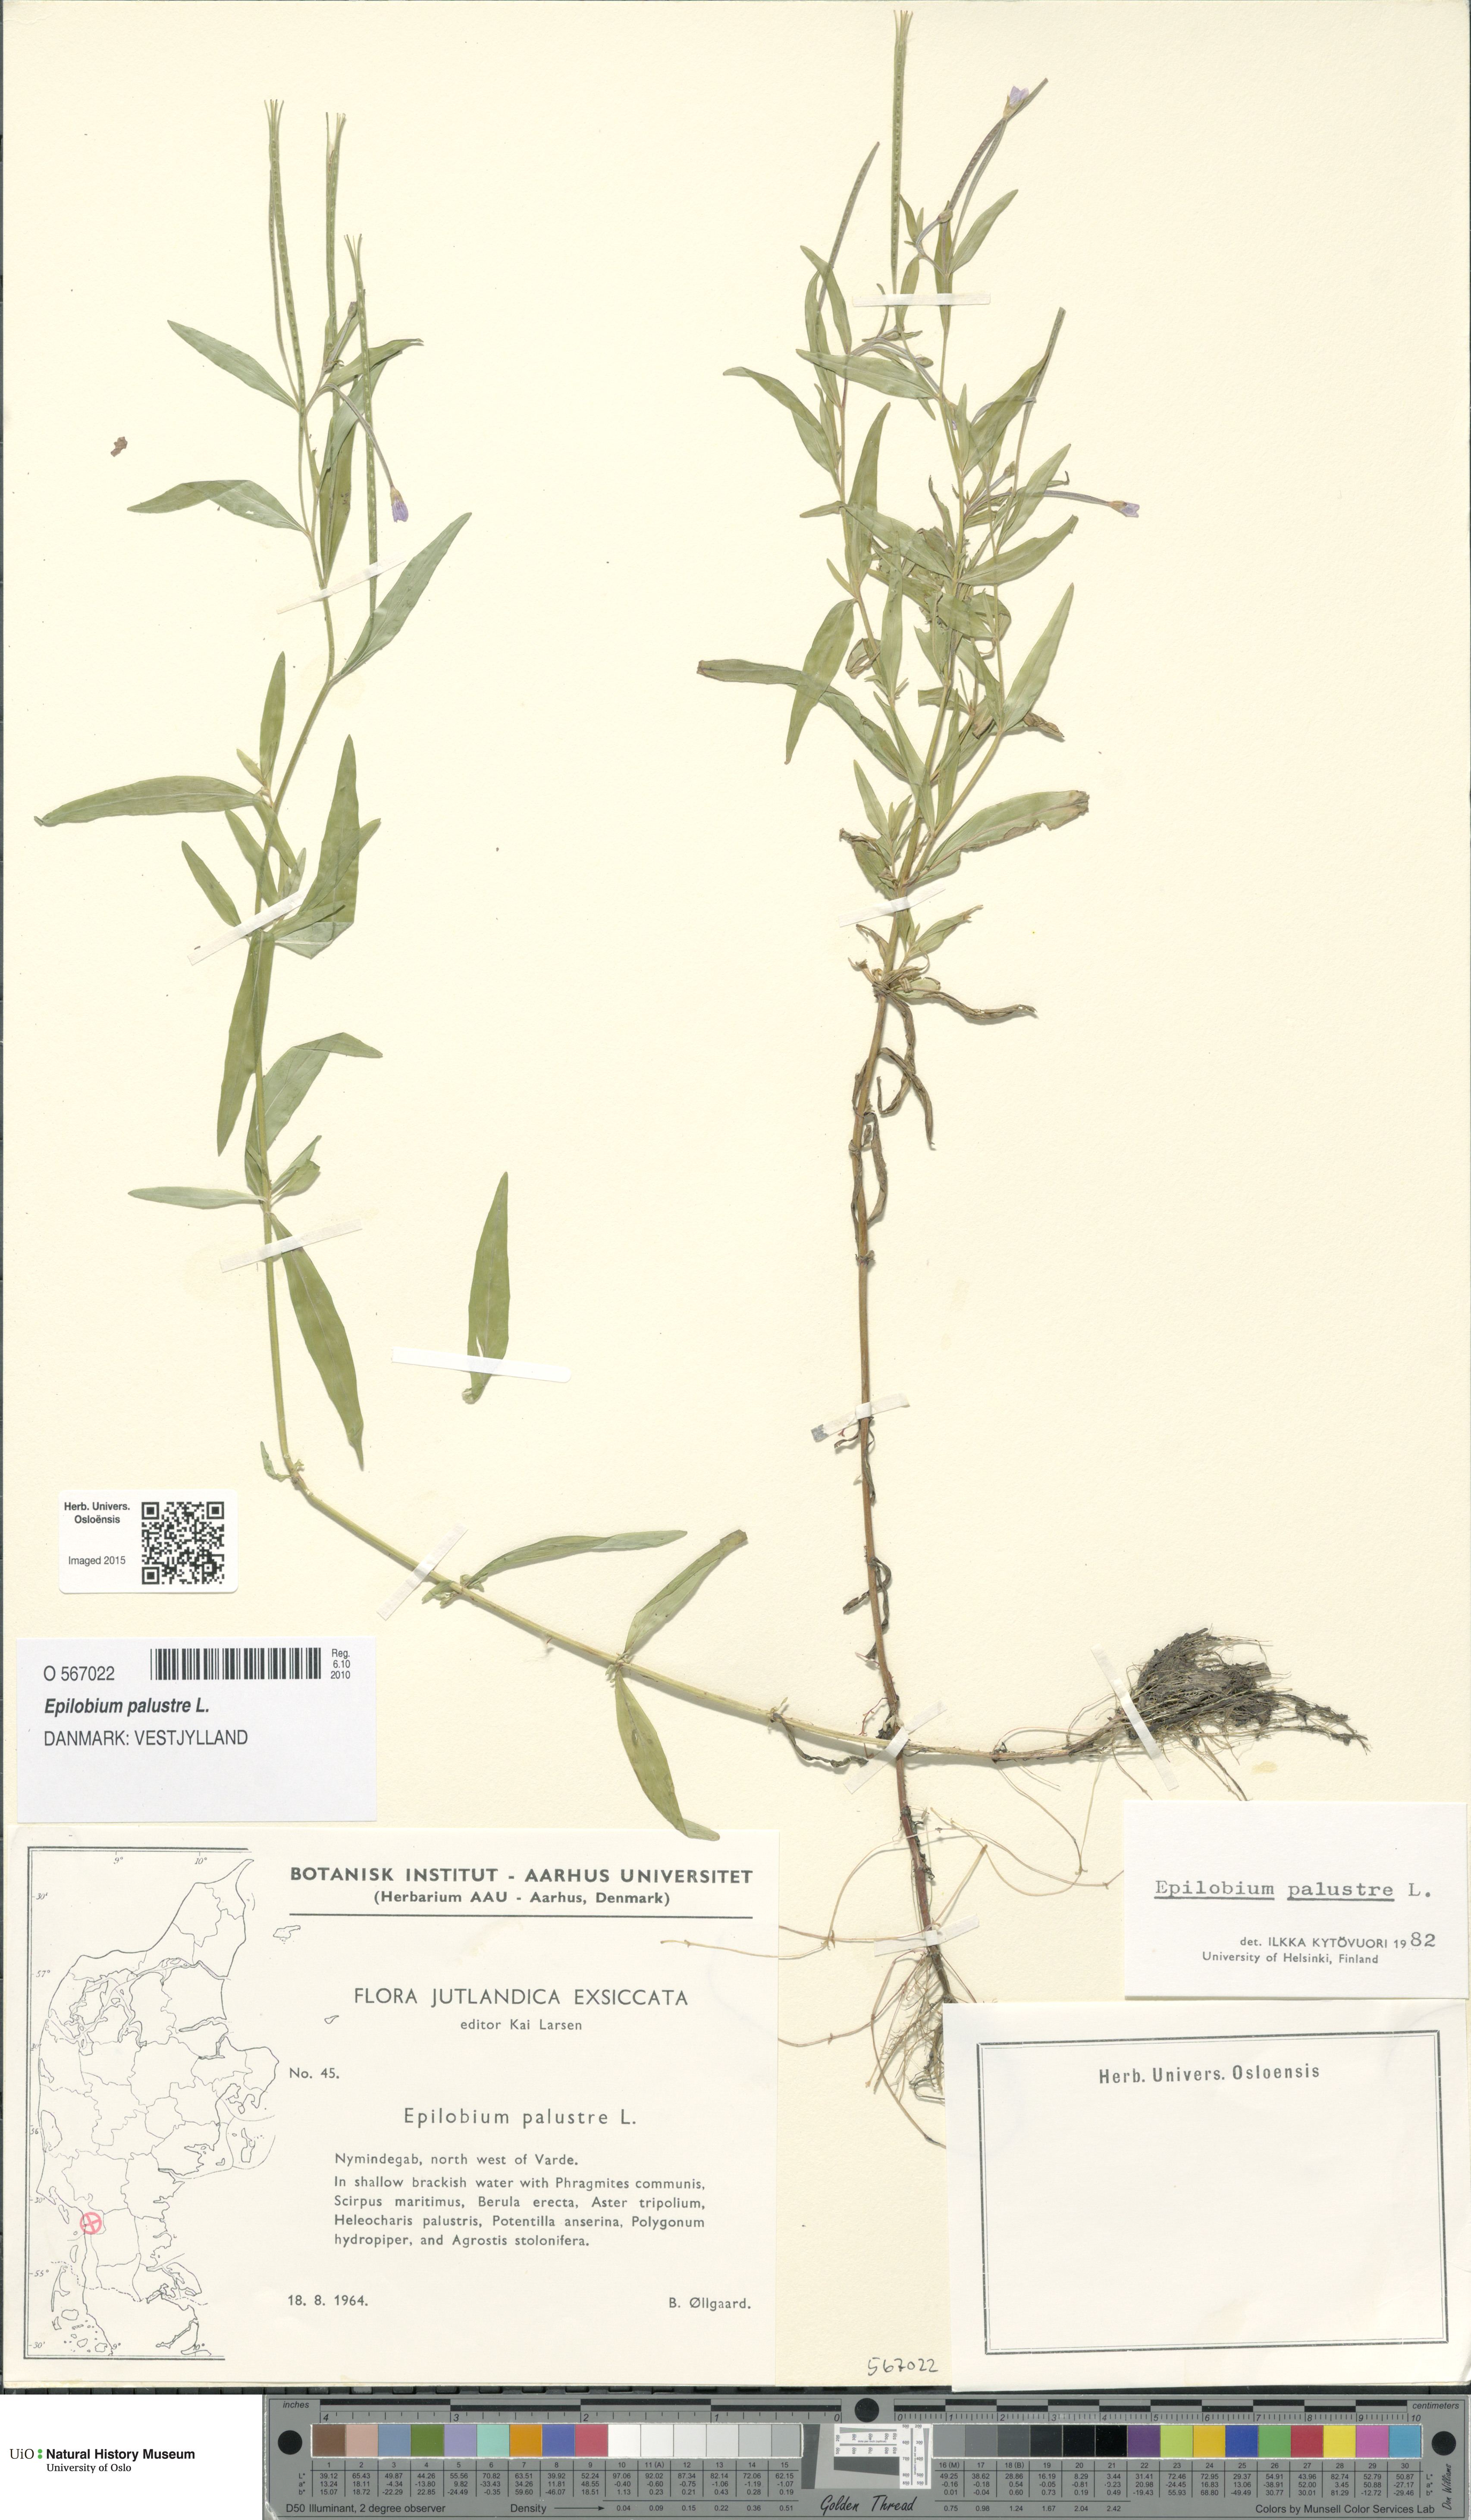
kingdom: Plantae
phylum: Tracheophyta
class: Magnoliopsida
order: Myrtales
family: Onagraceae
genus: Epilobium
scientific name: Epilobium palustre
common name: Marsh willowherb
